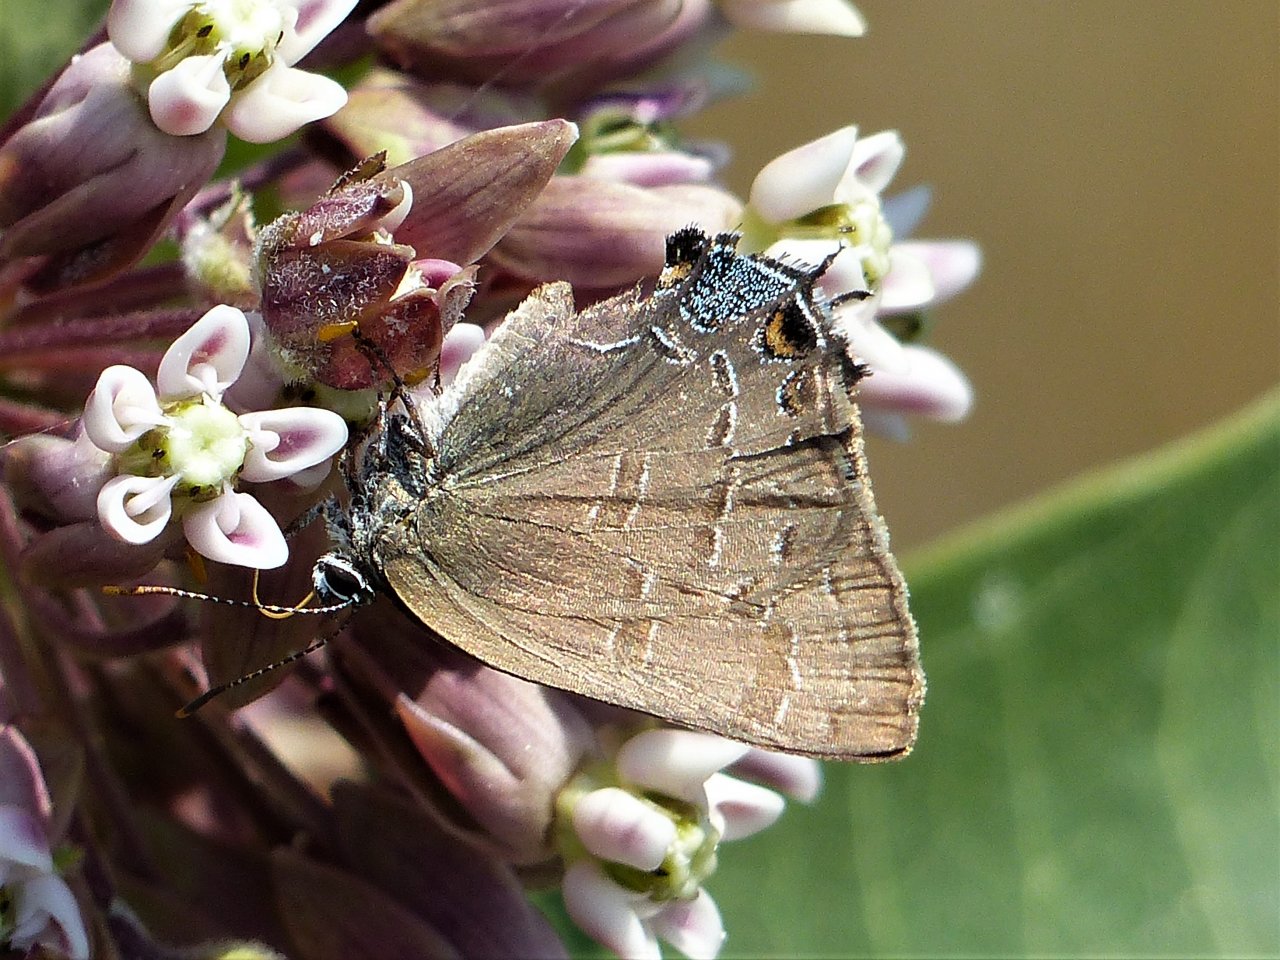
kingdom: Animalia
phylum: Arthropoda
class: Insecta
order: Lepidoptera
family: Lycaenidae
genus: Strymon
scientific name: Strymon caryaevorus
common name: Hickory Hairstreak
